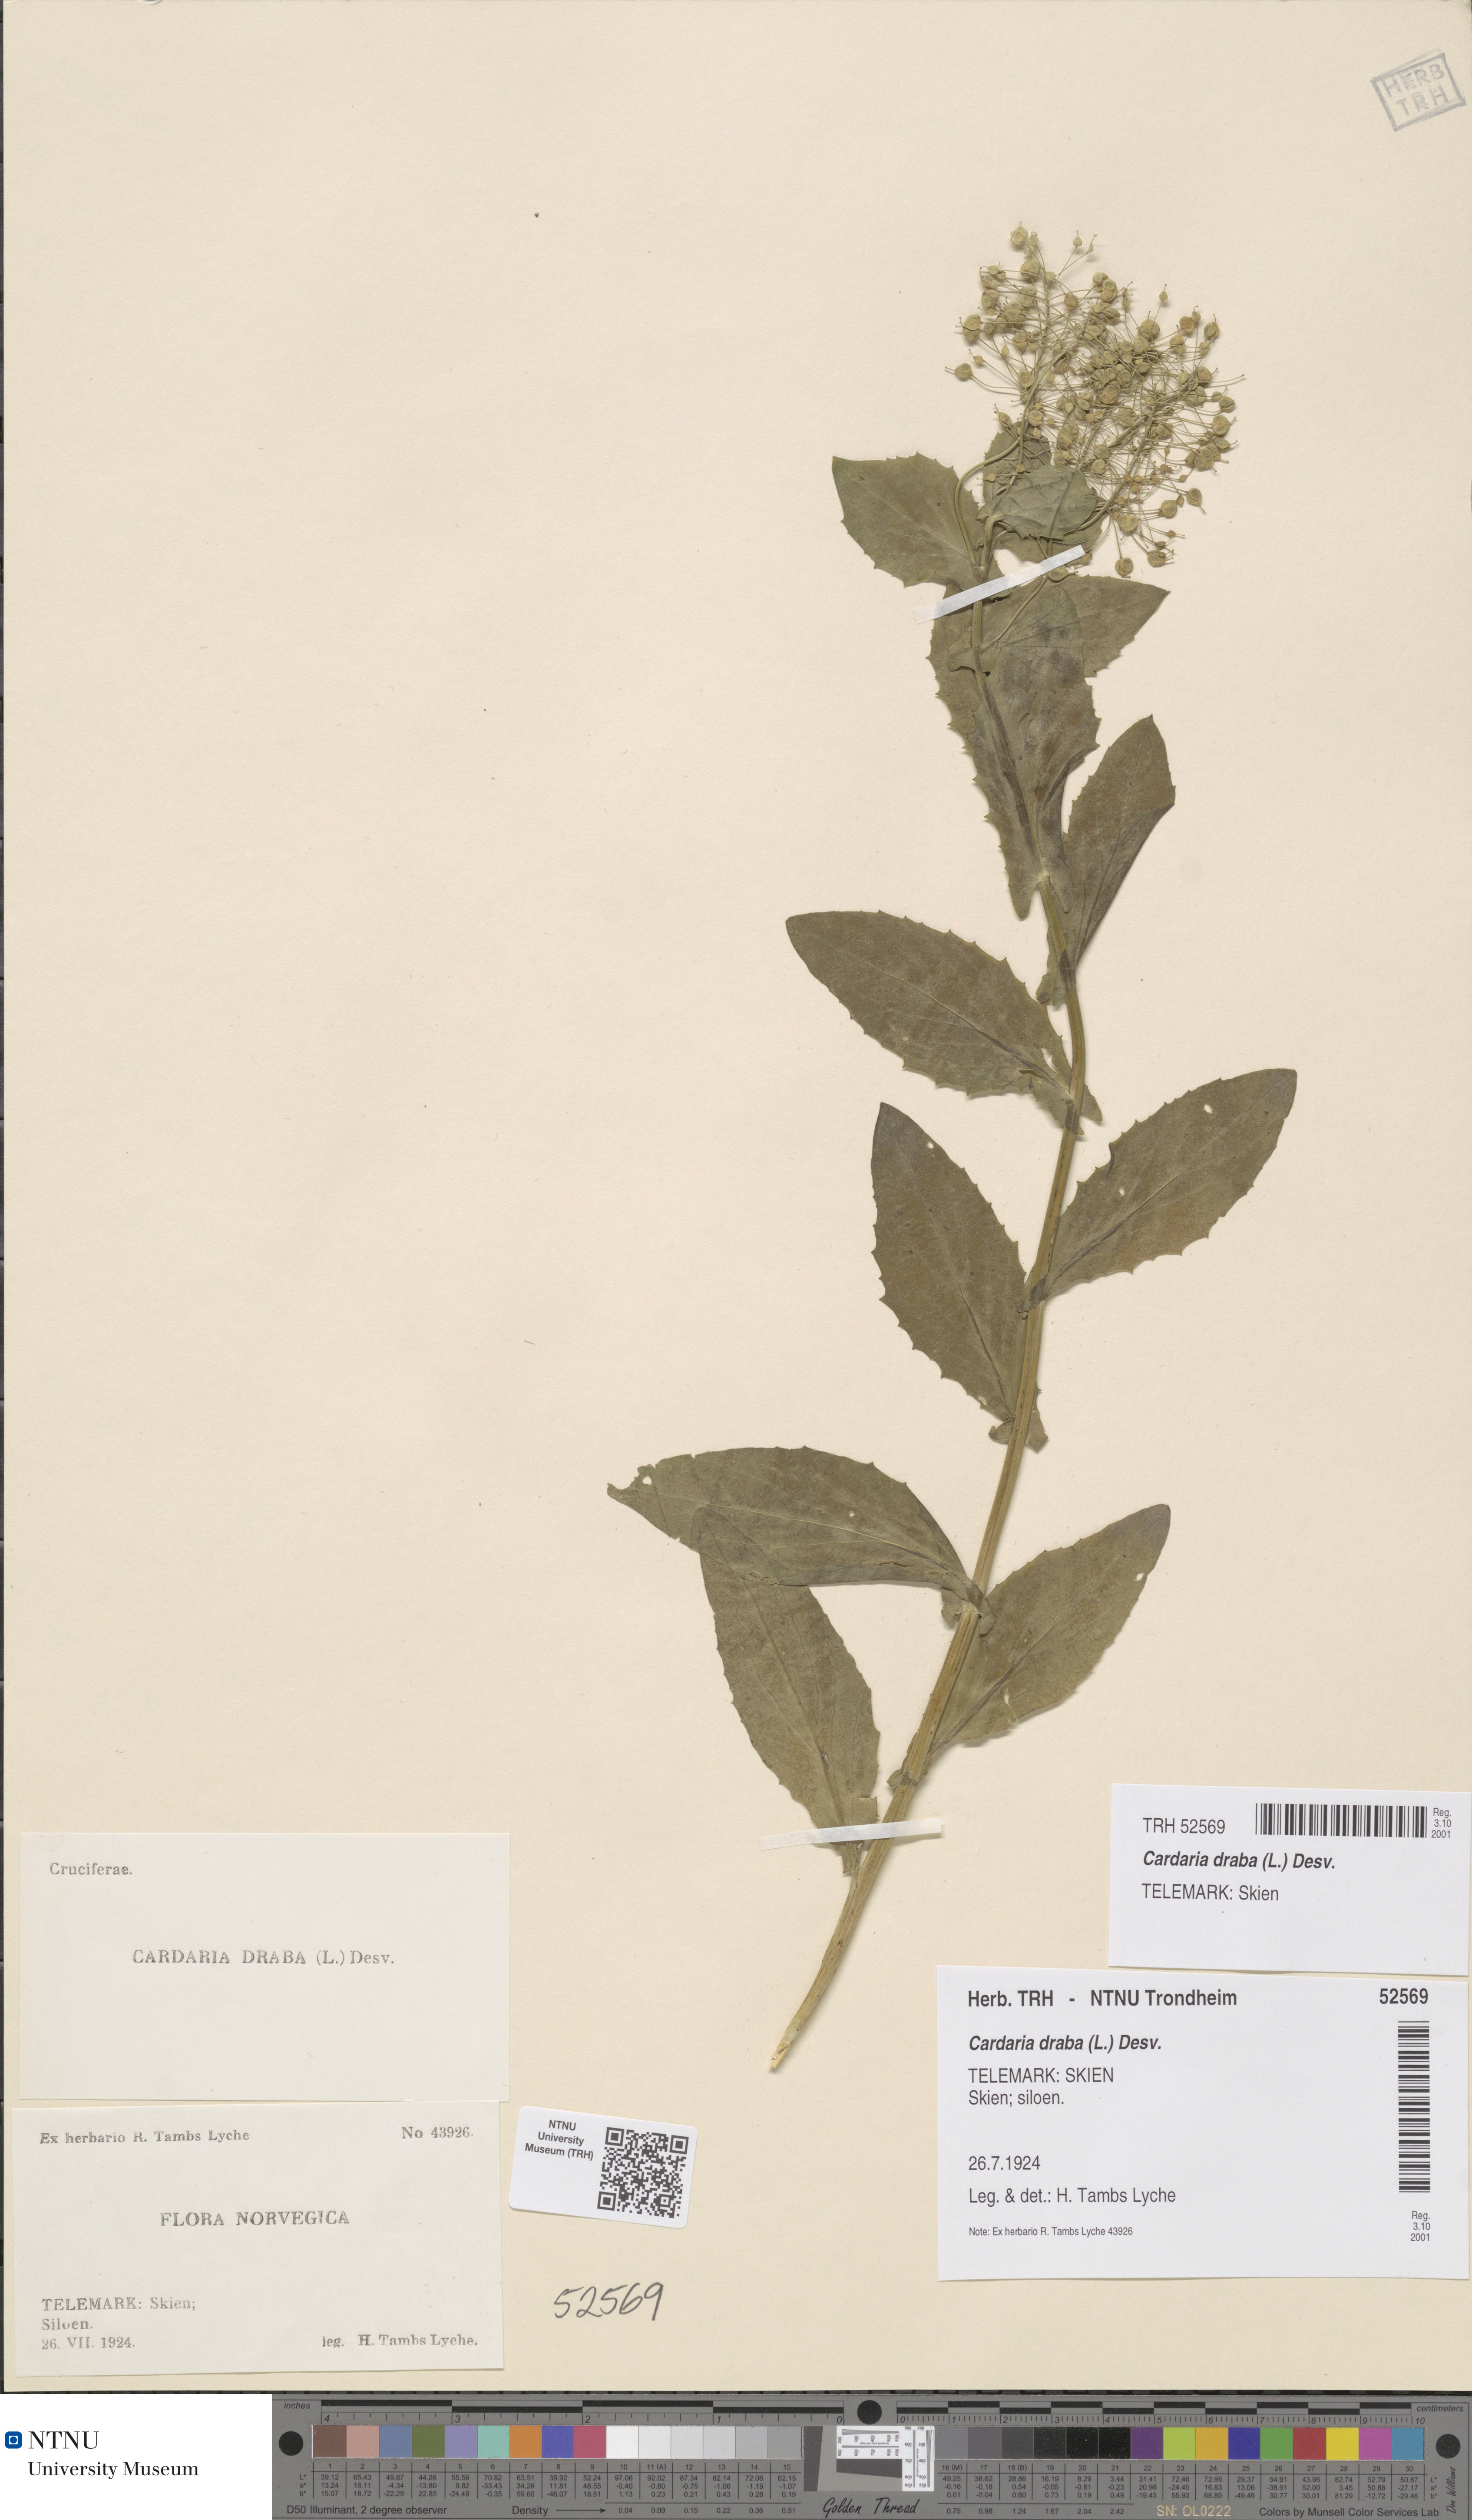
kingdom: Plantae
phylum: Tracheophyta
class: Magnoliopsida
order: Brassicales
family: Brassicaceae
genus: Lepidium
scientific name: Lepidium draba
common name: Hoary cress
